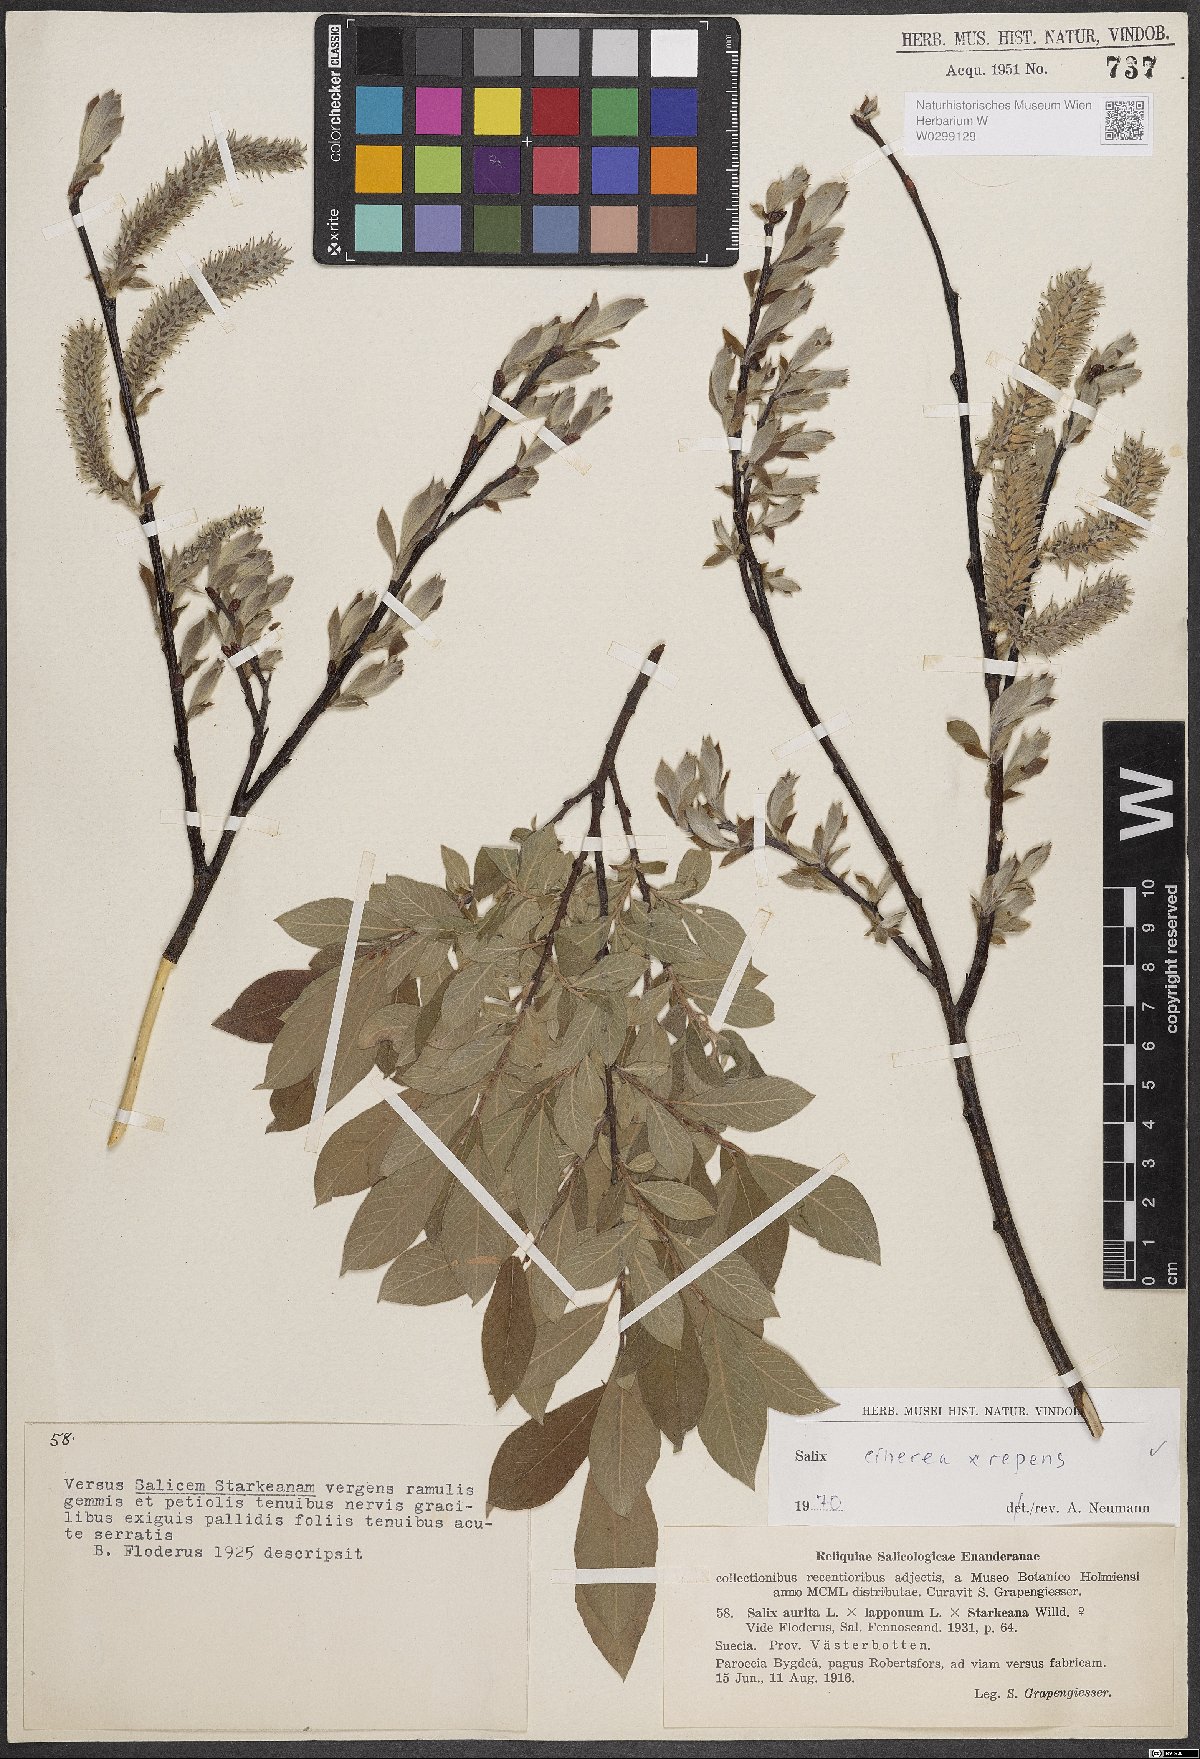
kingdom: Plantae
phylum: Tracheophyta
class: Magnoliopsida
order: Malpighiales
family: Salicaceae
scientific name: Salicaceae
